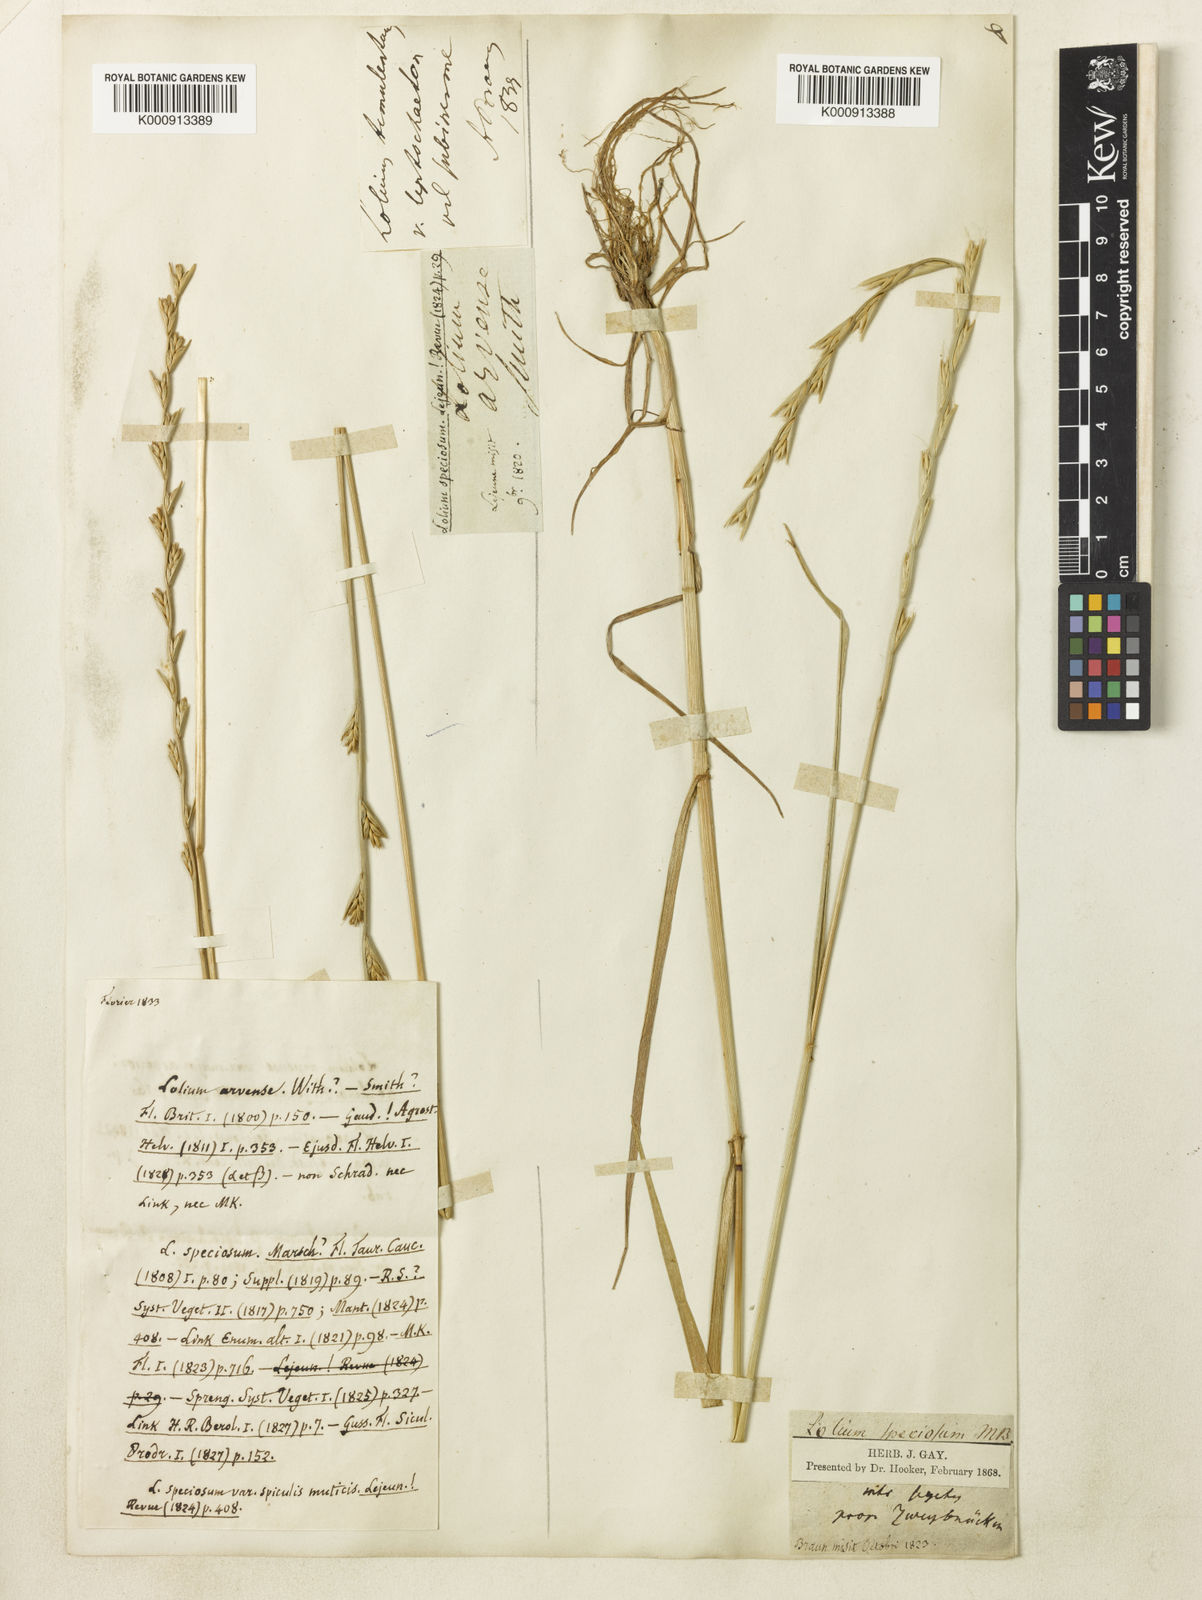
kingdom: Plantae
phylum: Tracheophyta
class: Liliopsida
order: Poales
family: Poaceae
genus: Lolium
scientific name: Lolium temulentum
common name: Darnel
